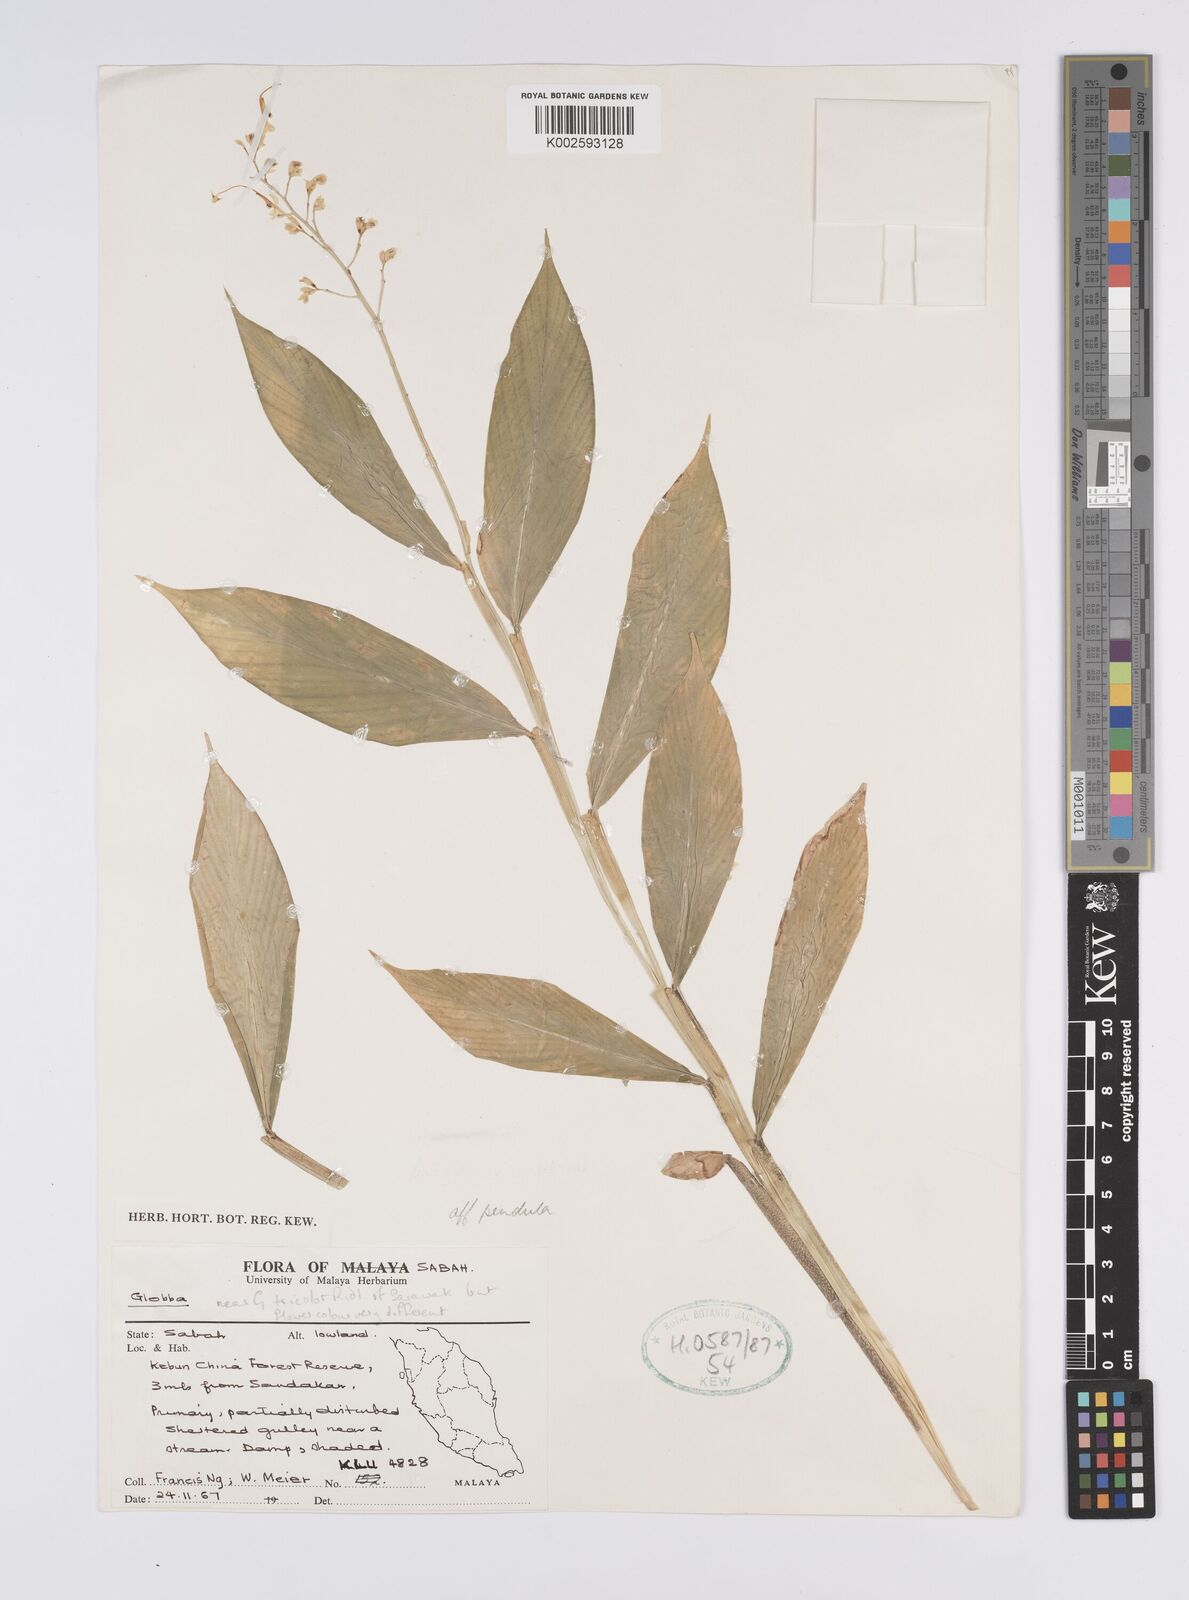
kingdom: Plantae
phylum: Tracheophyta
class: Liliopsida
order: Zingiberales
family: Zingiberaceae
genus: Globba
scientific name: Globba pendula
